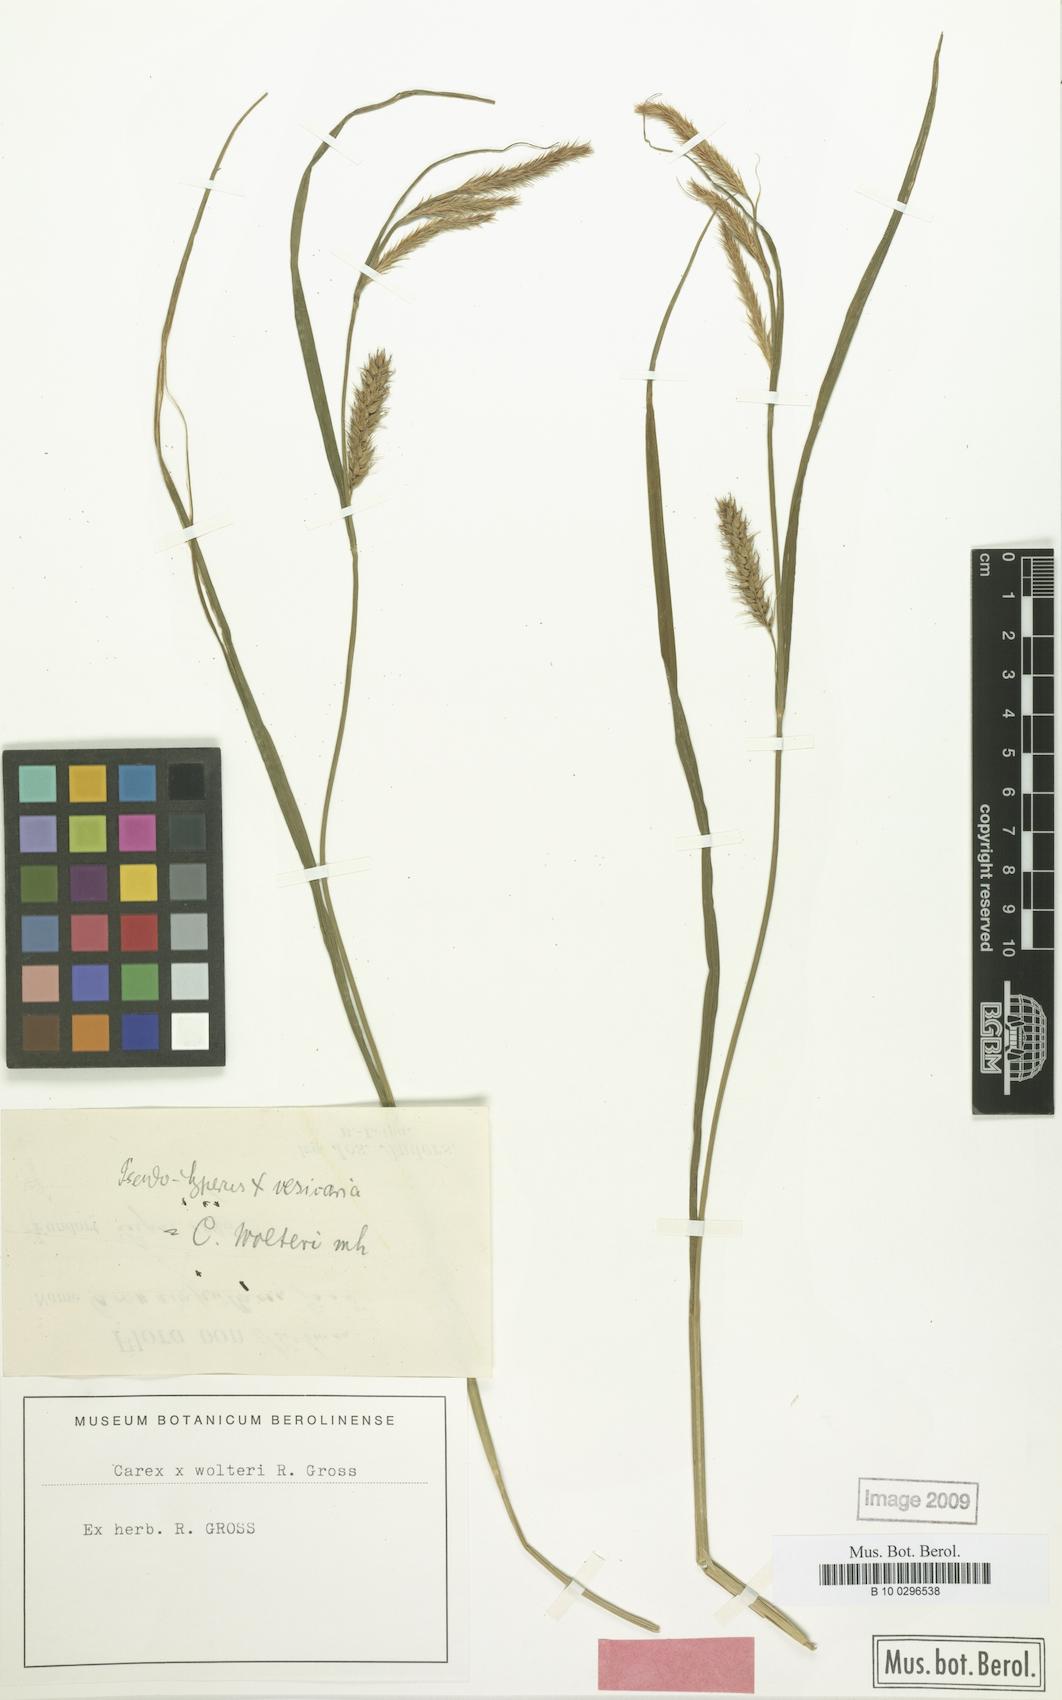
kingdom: Plantae
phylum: Tracheophyta
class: Liliopsida
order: Poales
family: Cyperaceae
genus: Carex
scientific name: Carex wolteri
